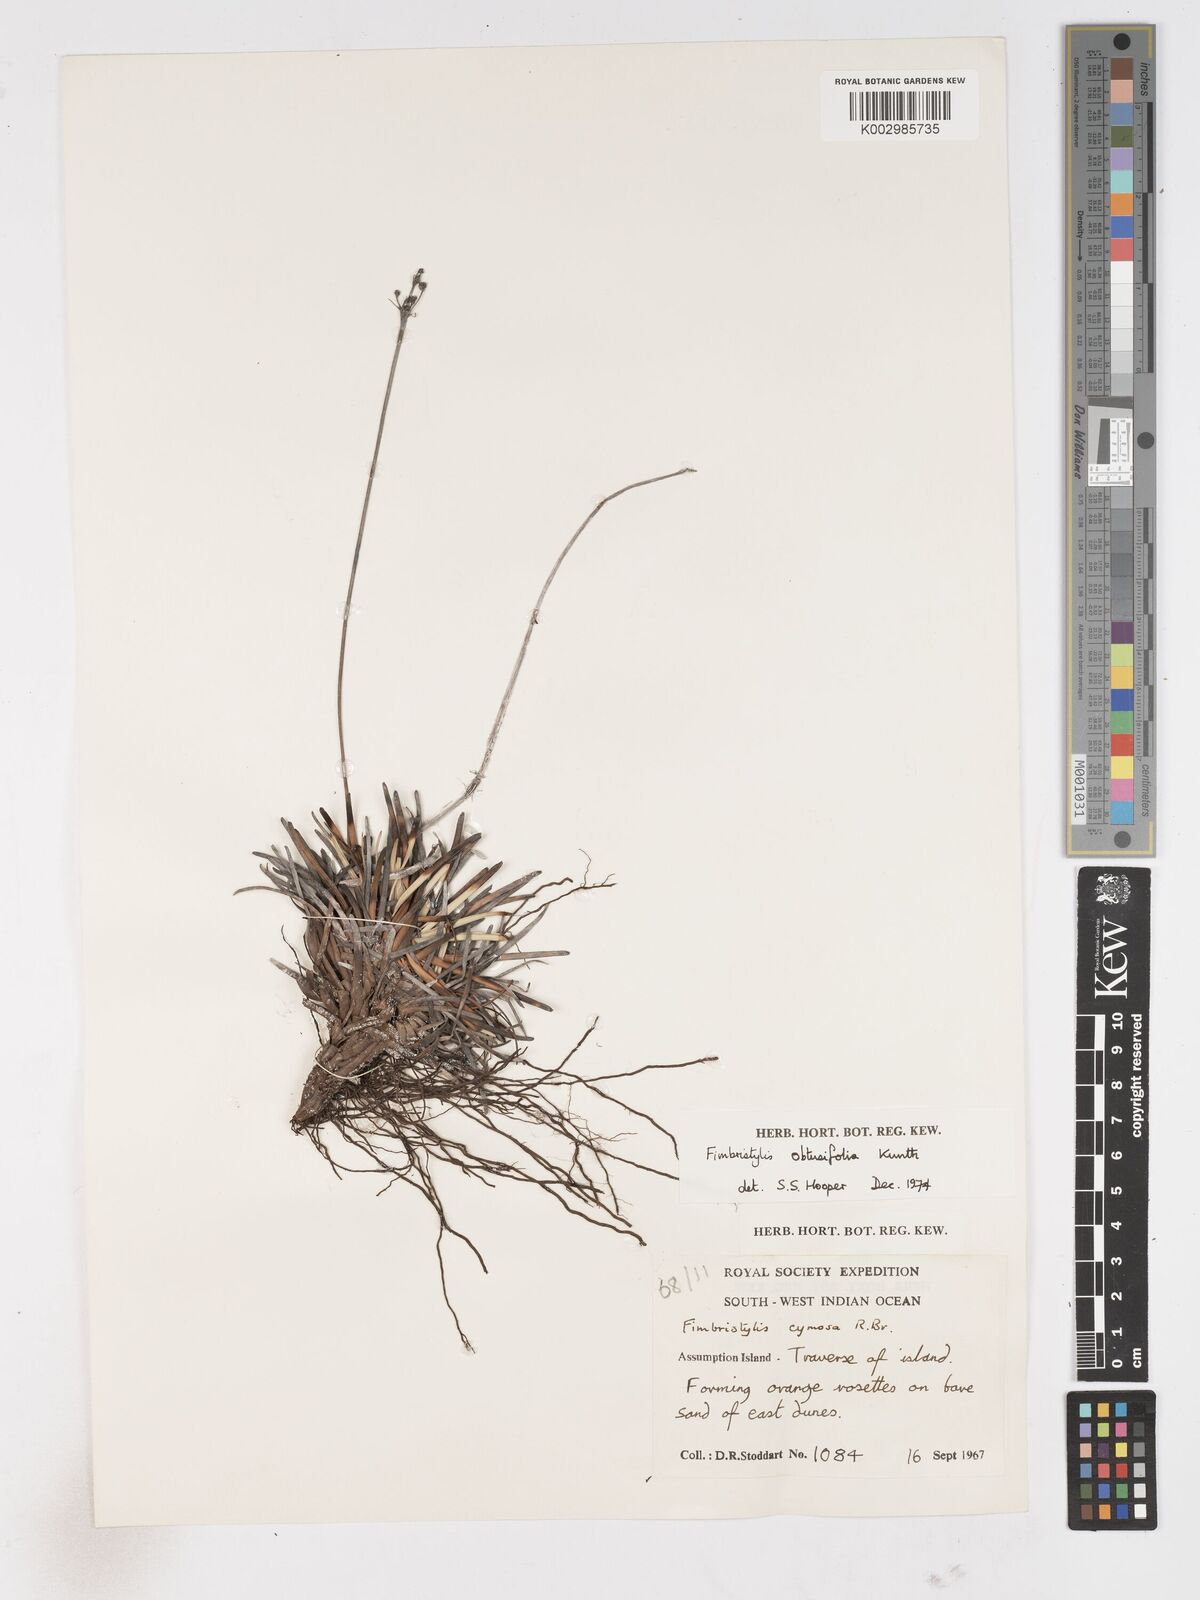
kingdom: Plantae
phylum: Tracheophyta
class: Liliopsida
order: Poales
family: Cyperaceae
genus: Fimbristylis
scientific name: Fimbristylis cymosa
